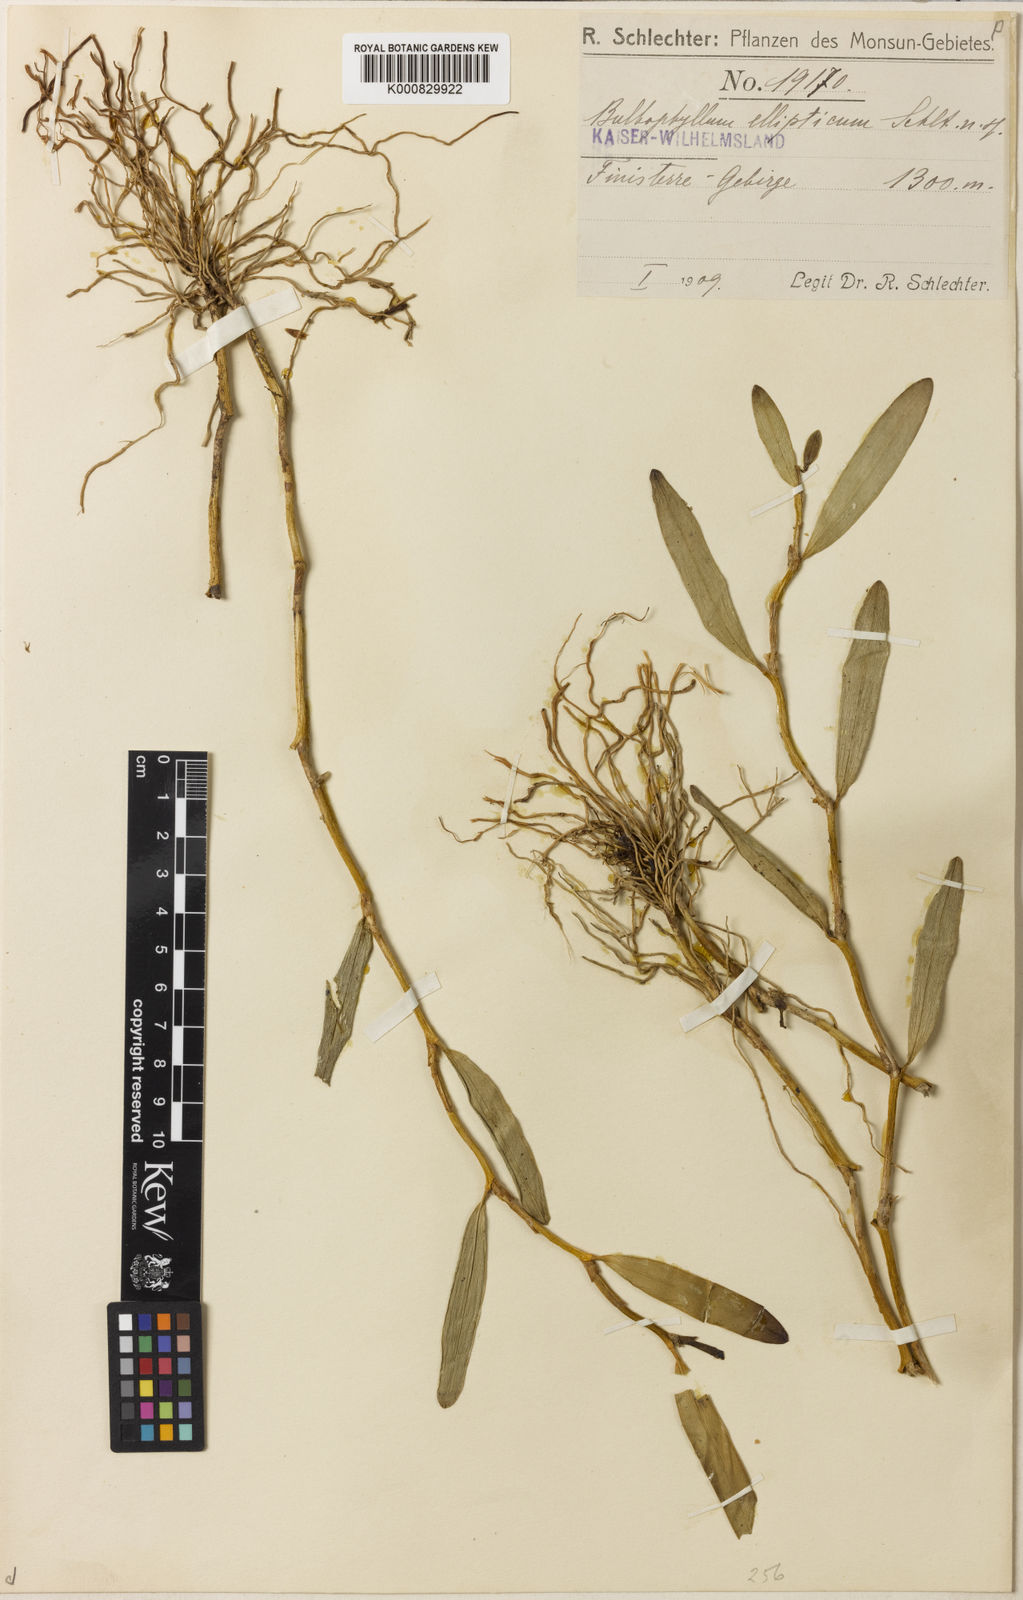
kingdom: Plantae
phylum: Tracheophyta
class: Liliopsida
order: Asparagales
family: Orchidaceae
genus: Bulbophyllum
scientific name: Bulbophyllum ellipticum
